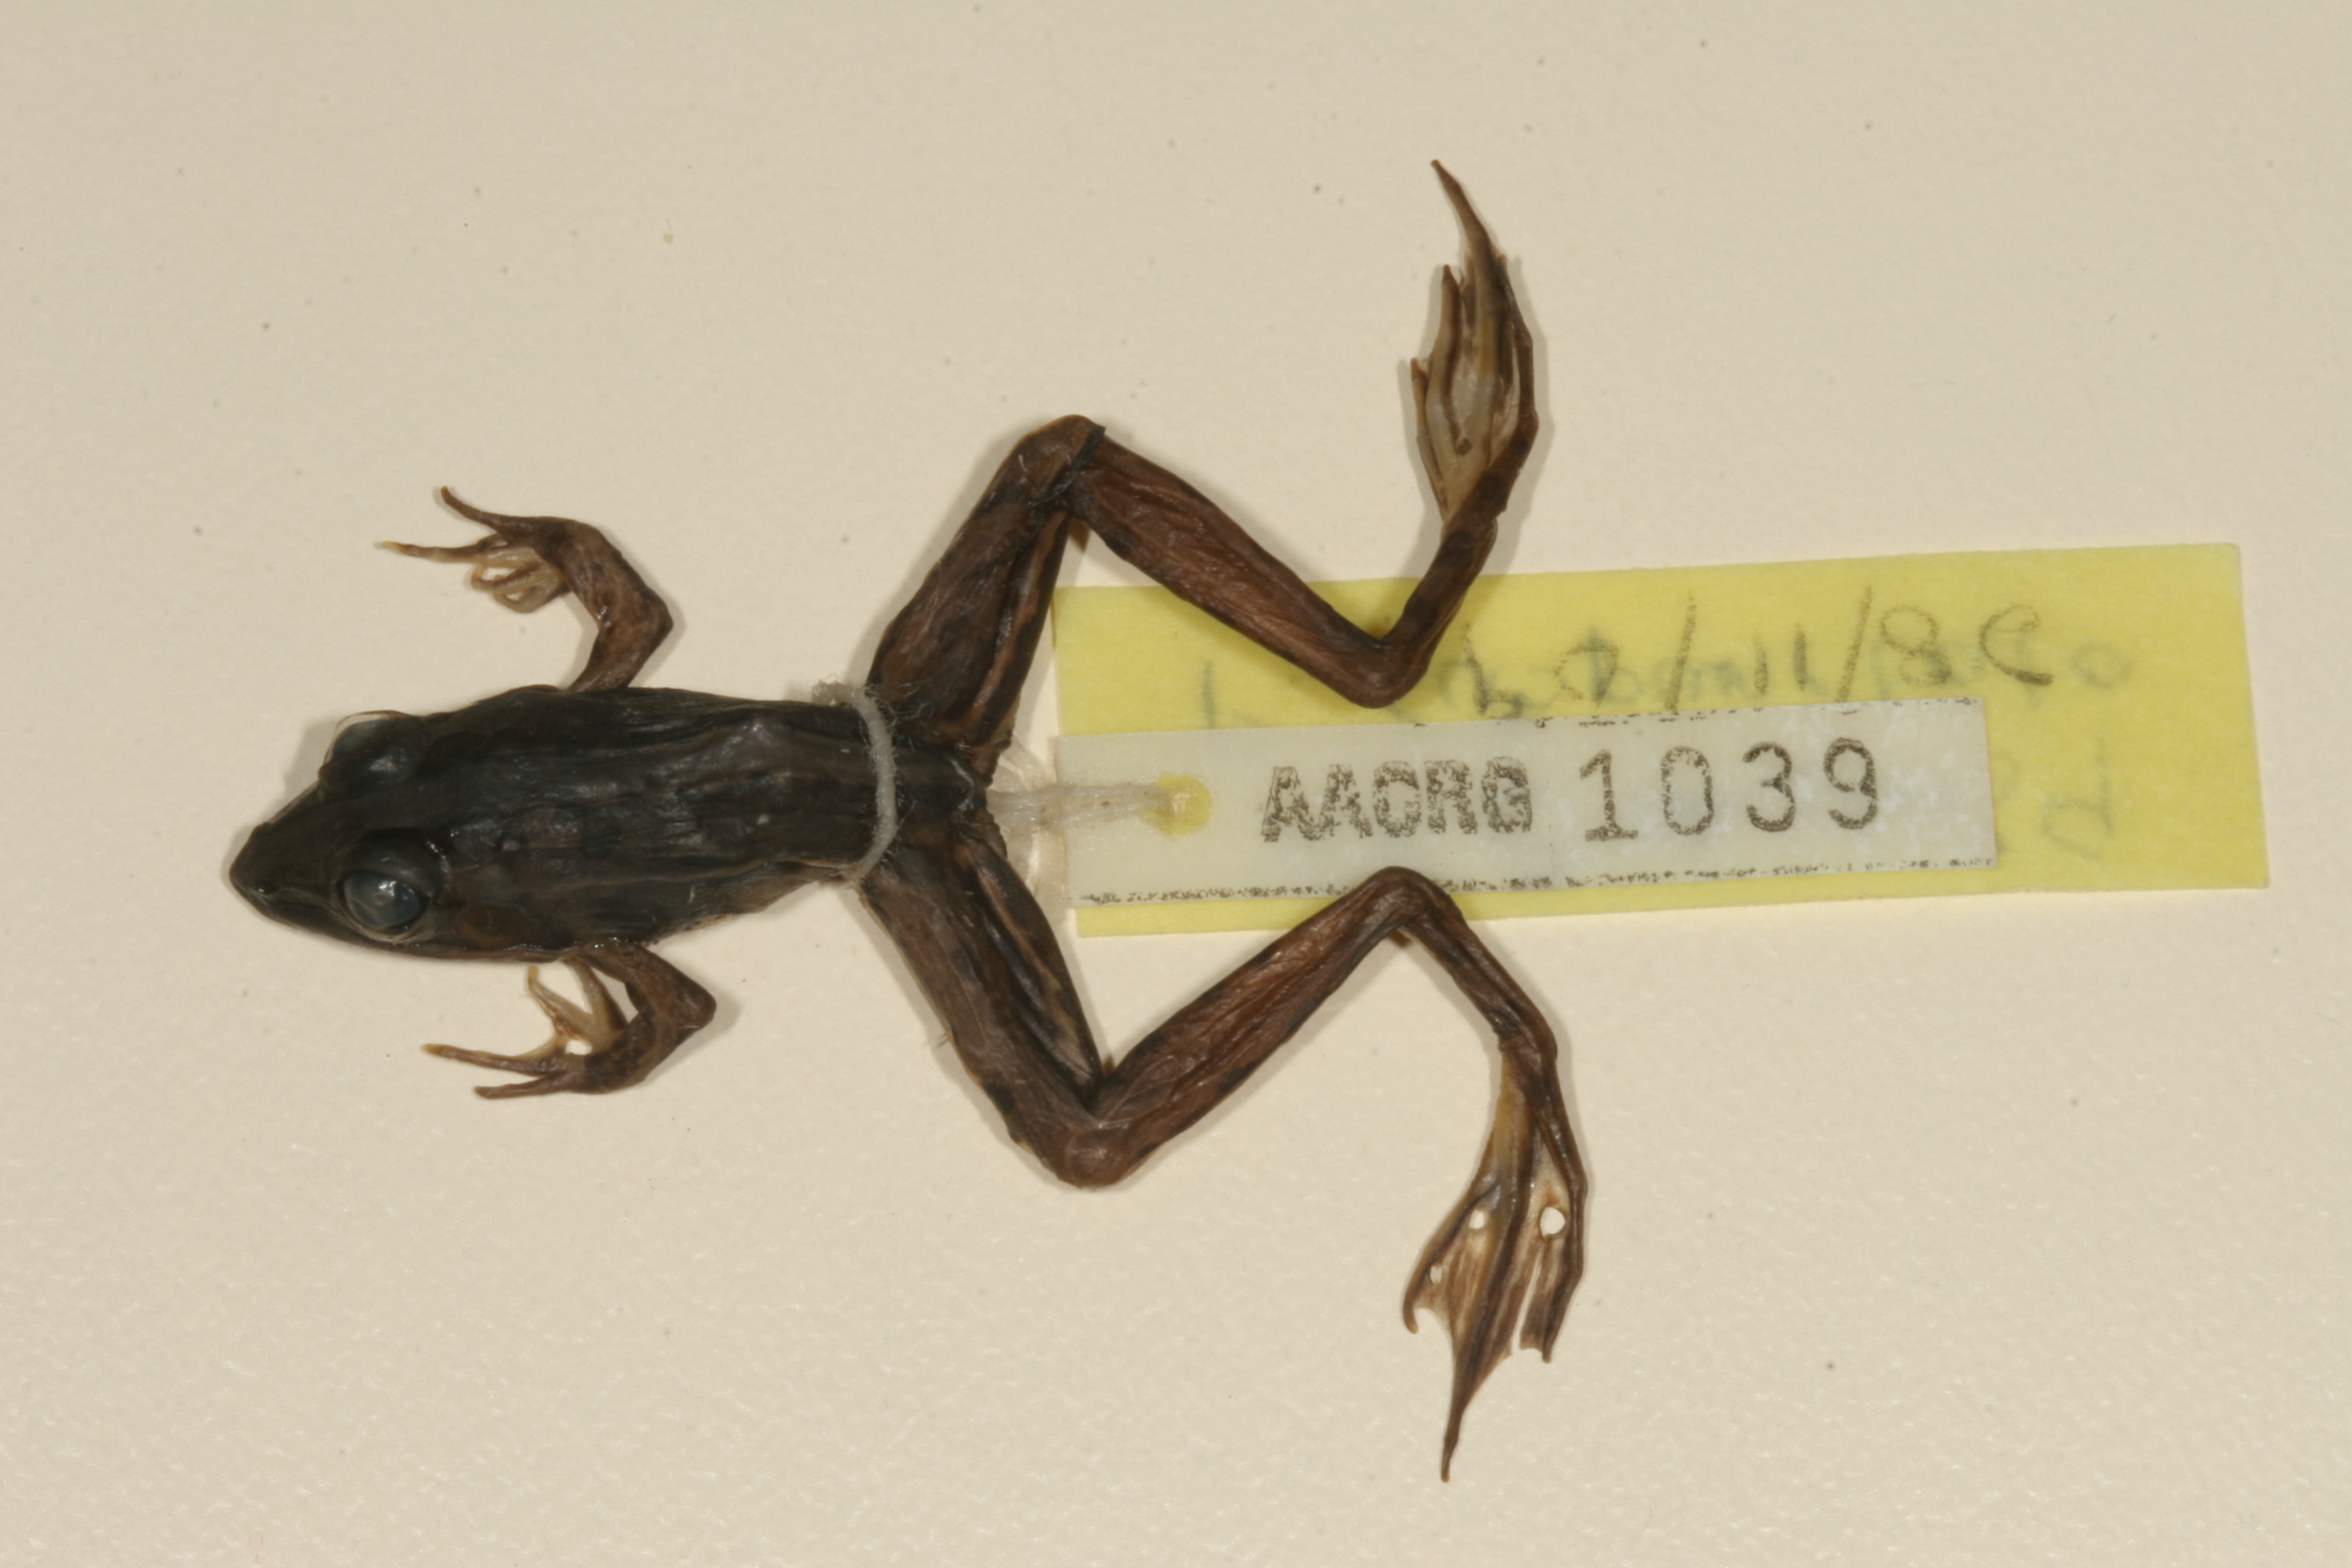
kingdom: Animalia
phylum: Chordata
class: Amphibia
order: Anura
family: Ptychadenidae
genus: Ptychadena
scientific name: Ptychadena subpunctata
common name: Bocage's grassland frog
